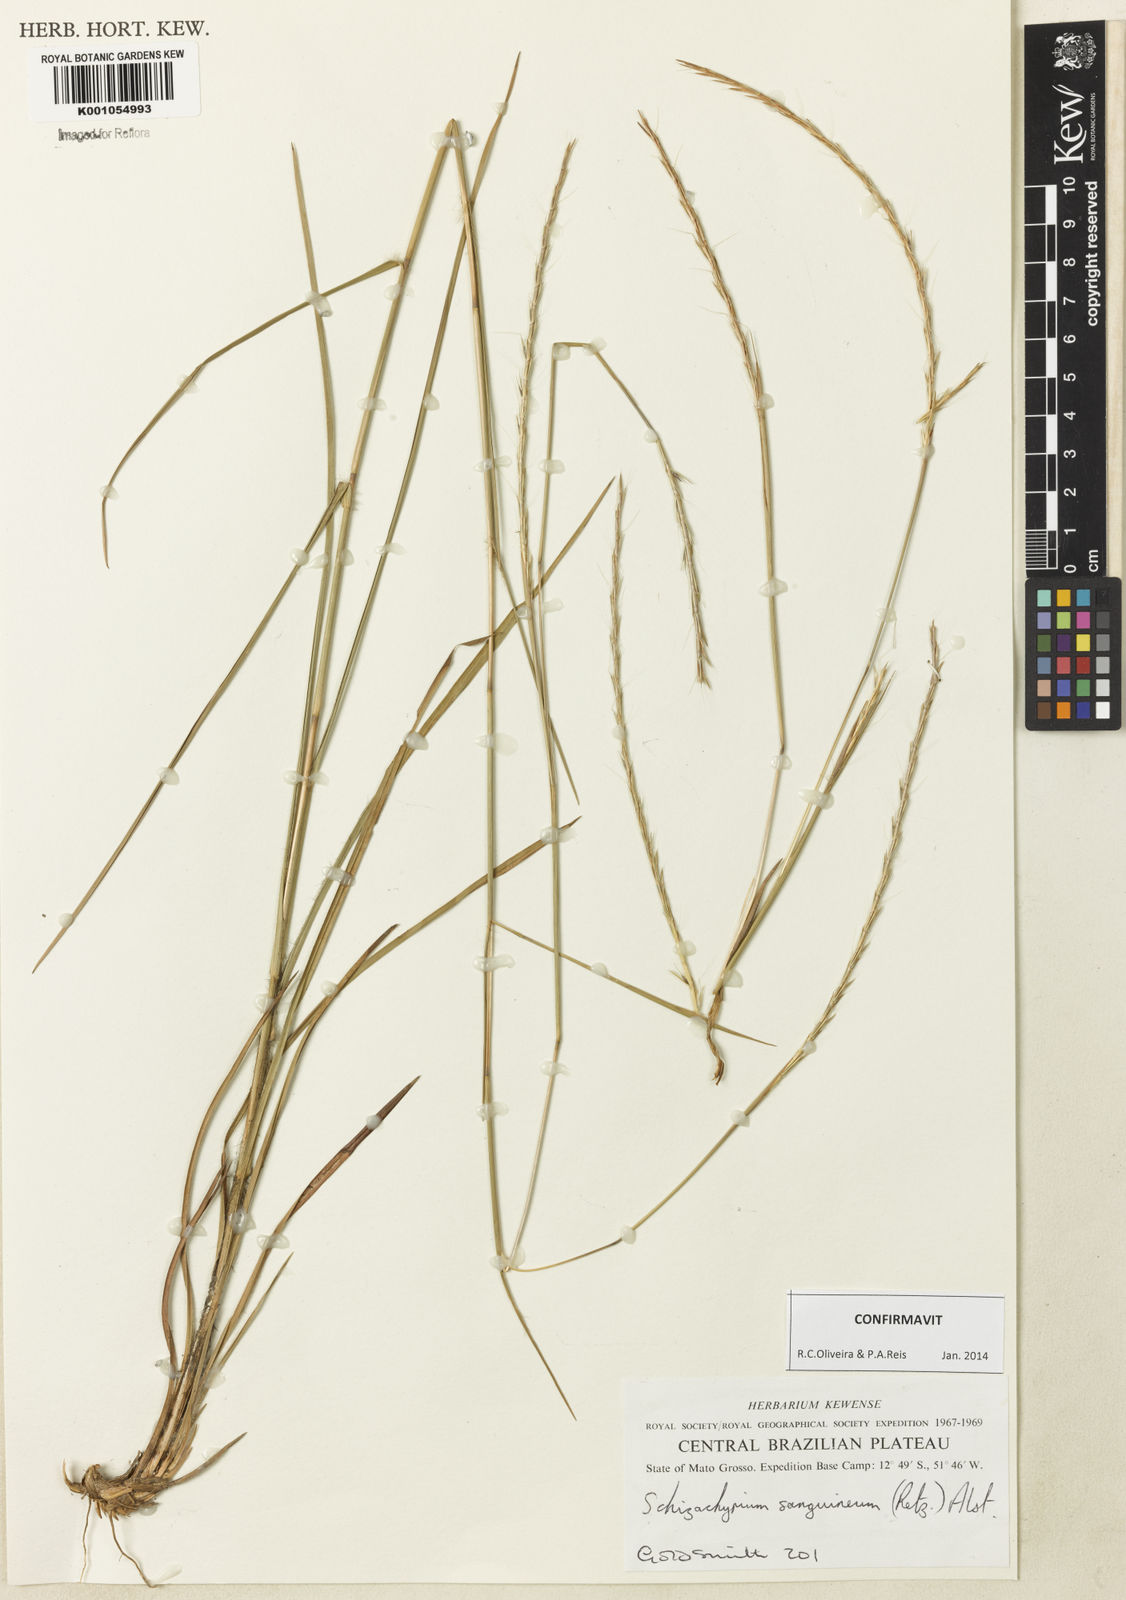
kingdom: Plantae
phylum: Tracheophyta
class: Liliopsida
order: Poales
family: Poaceae
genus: Schizachyrium
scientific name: Schizachyrium sanguineum
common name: Crimson bluestem
